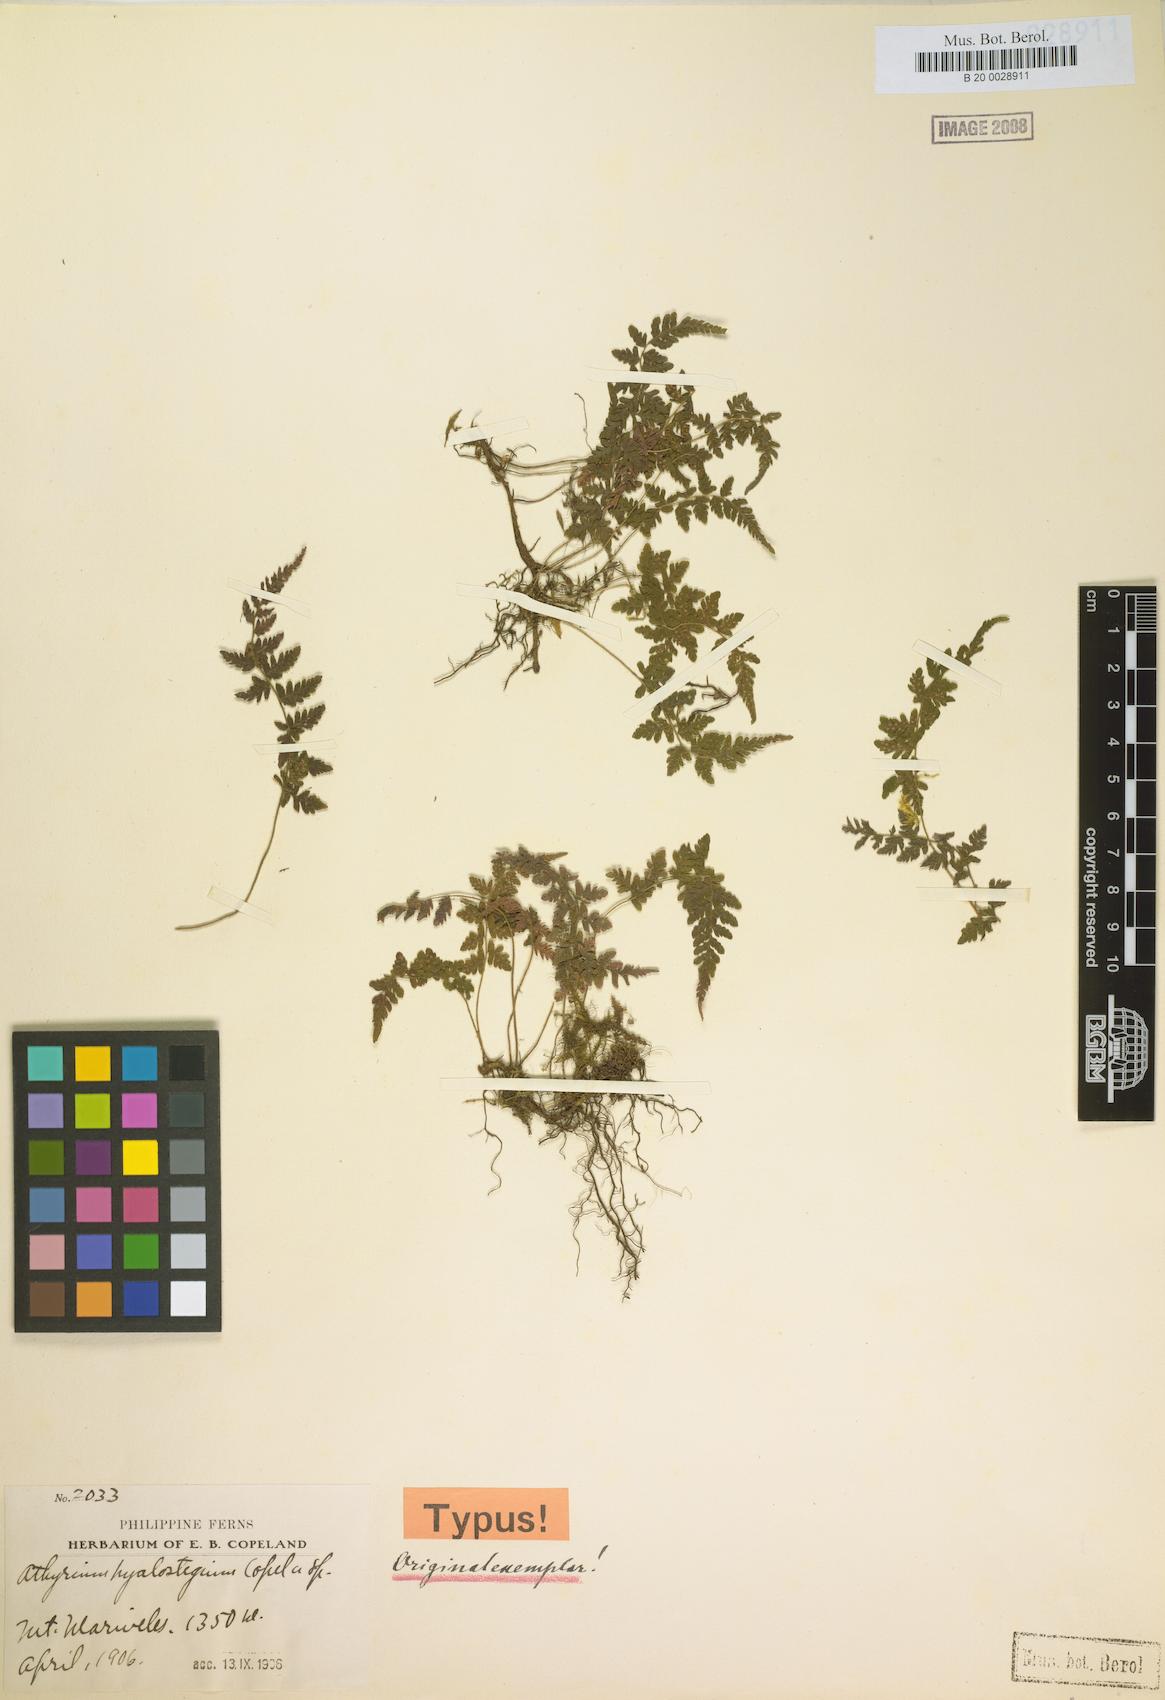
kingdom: Plantae
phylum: Tracheophyta
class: Polypodiopsida
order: Polypodiales
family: Thelypteridaceae
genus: Amauropelta
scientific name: Amauropelta grammitoides
